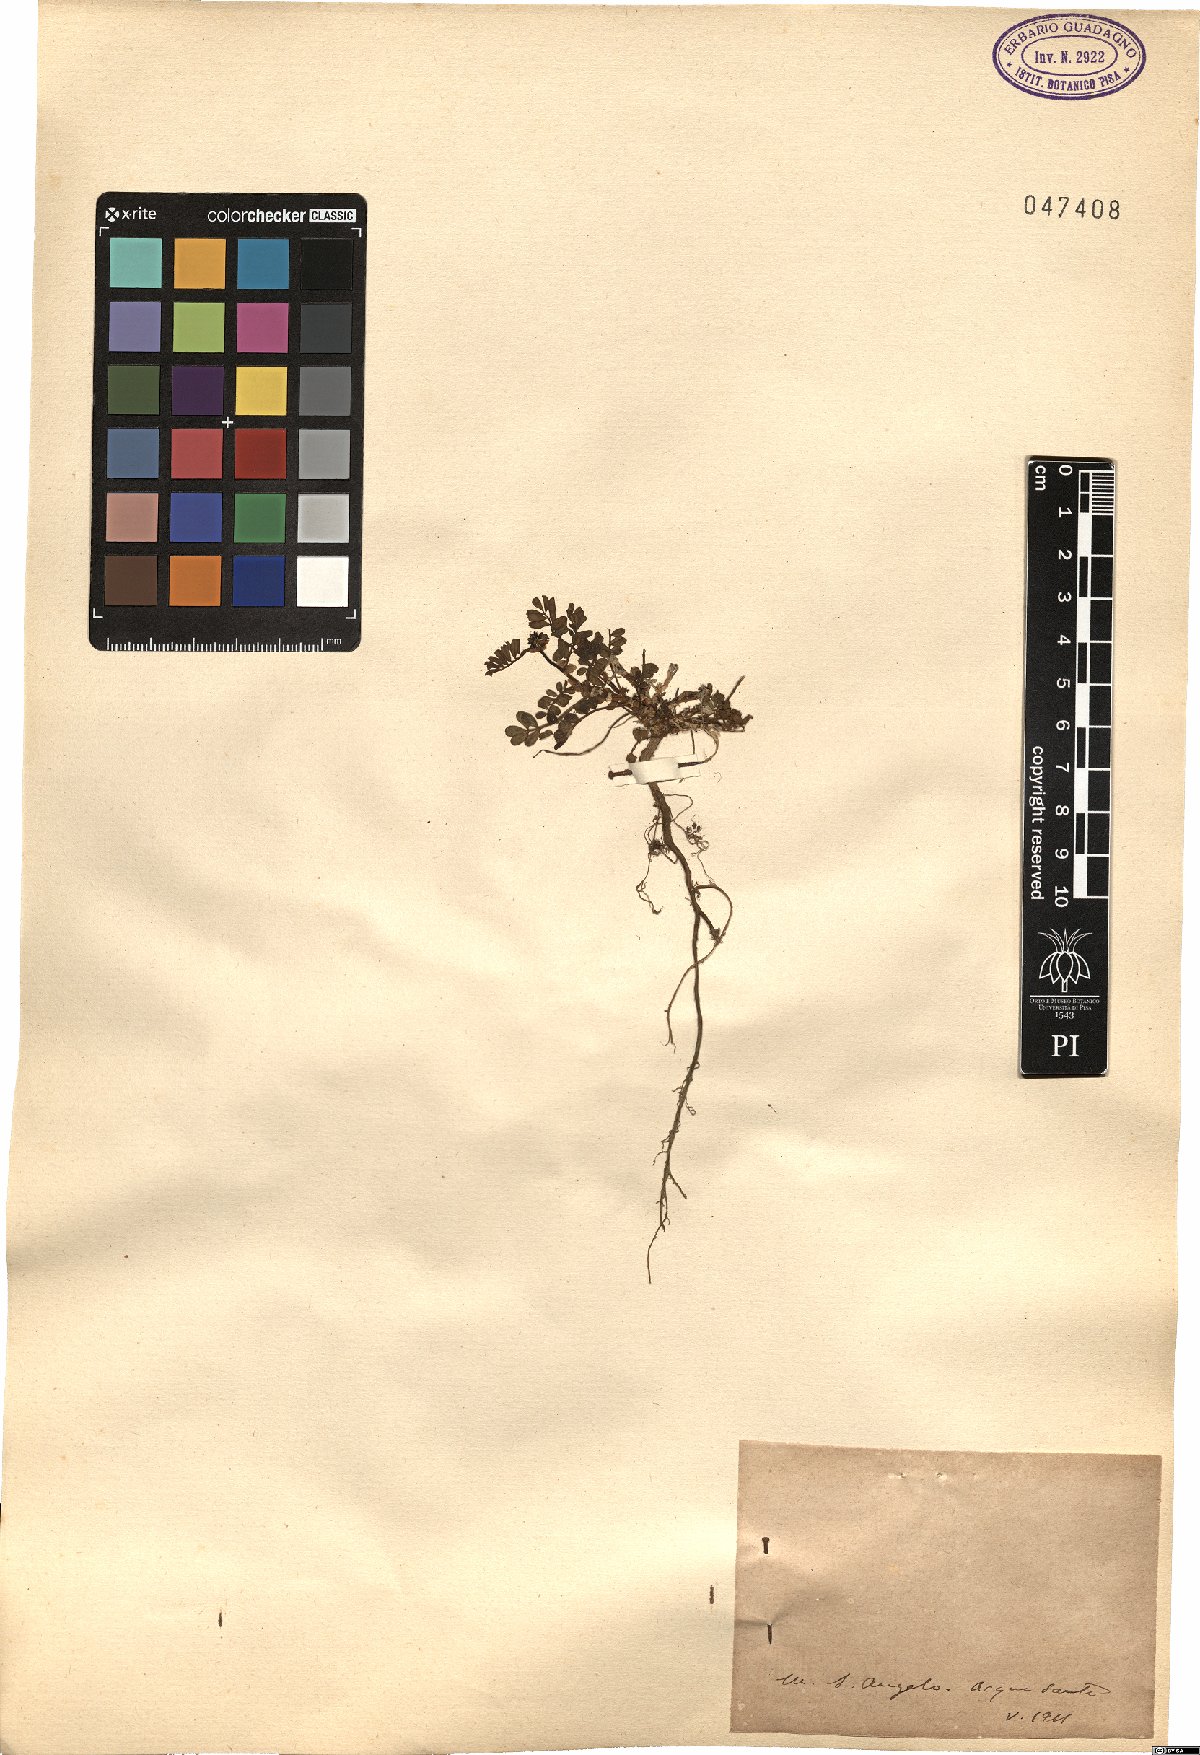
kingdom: Plantae
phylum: Tracheophyta
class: Magnoliopsida
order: Fabales
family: Fabaceae
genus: Hippocrepis
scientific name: Hippocrepis
